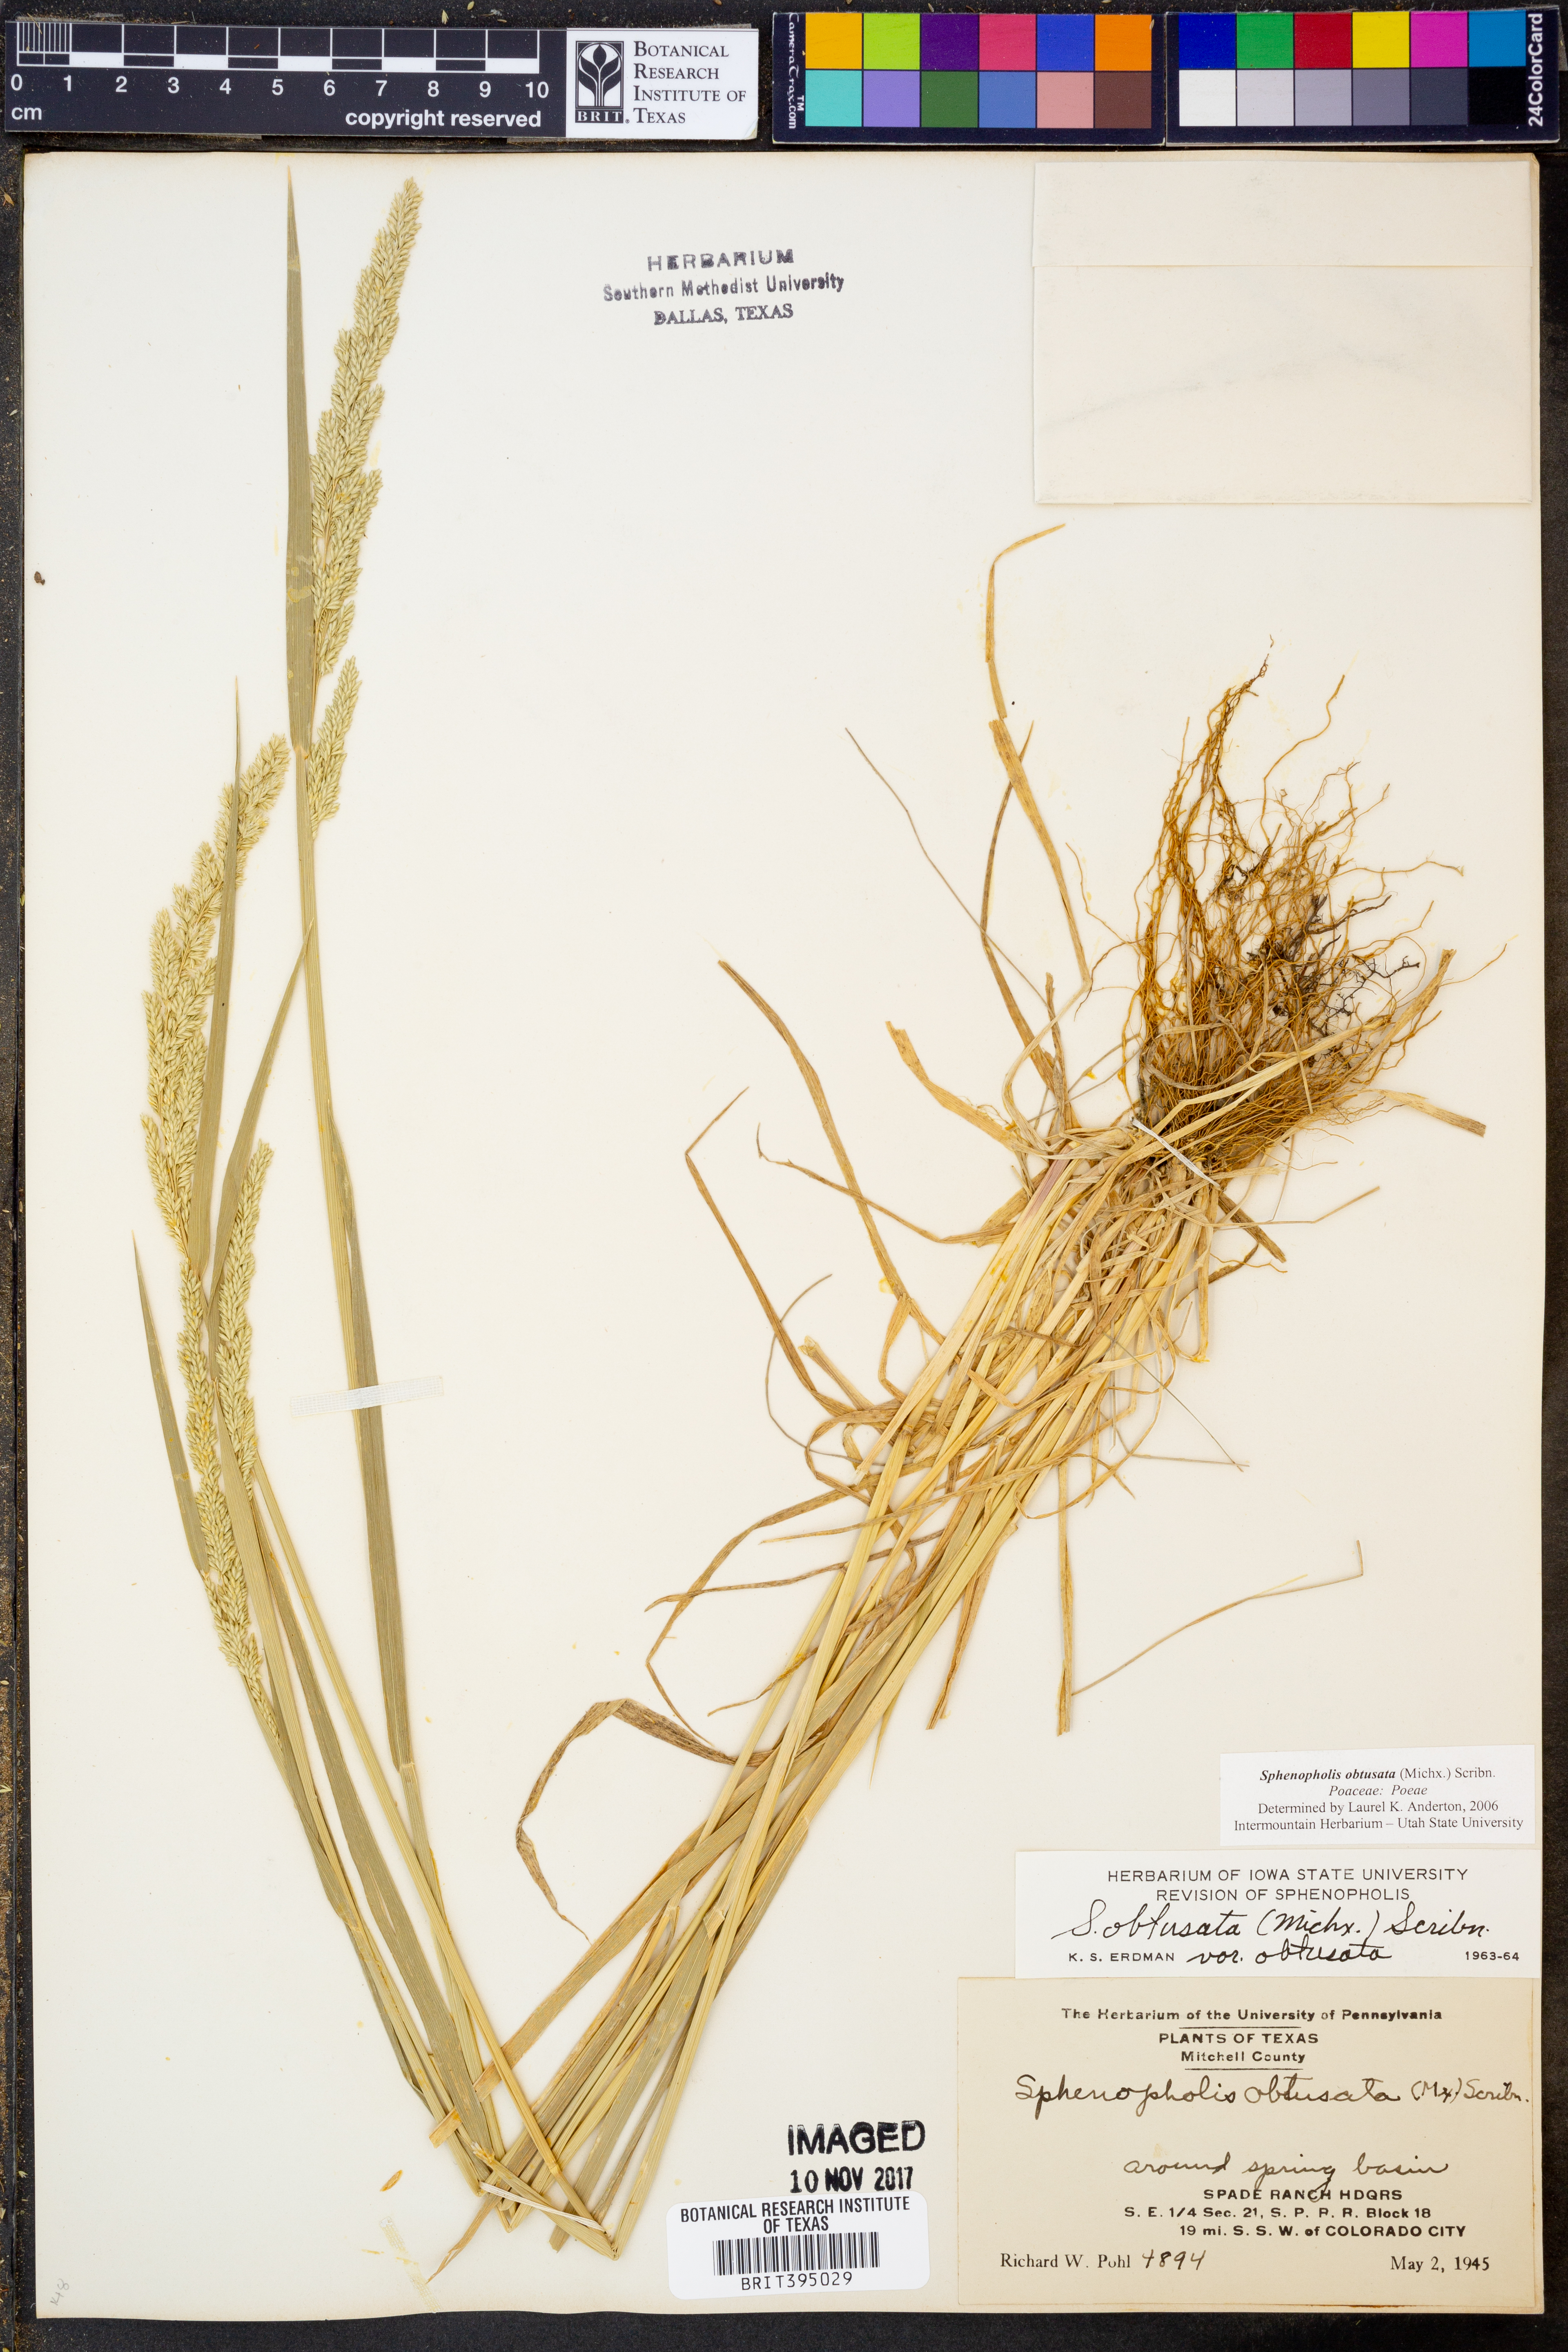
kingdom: Plantae
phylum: Tracheophyta
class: Liliopsida
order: Poales
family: Poaceae
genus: Sphenopholis
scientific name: Sphenopholis obtusata
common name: Prairie grass
